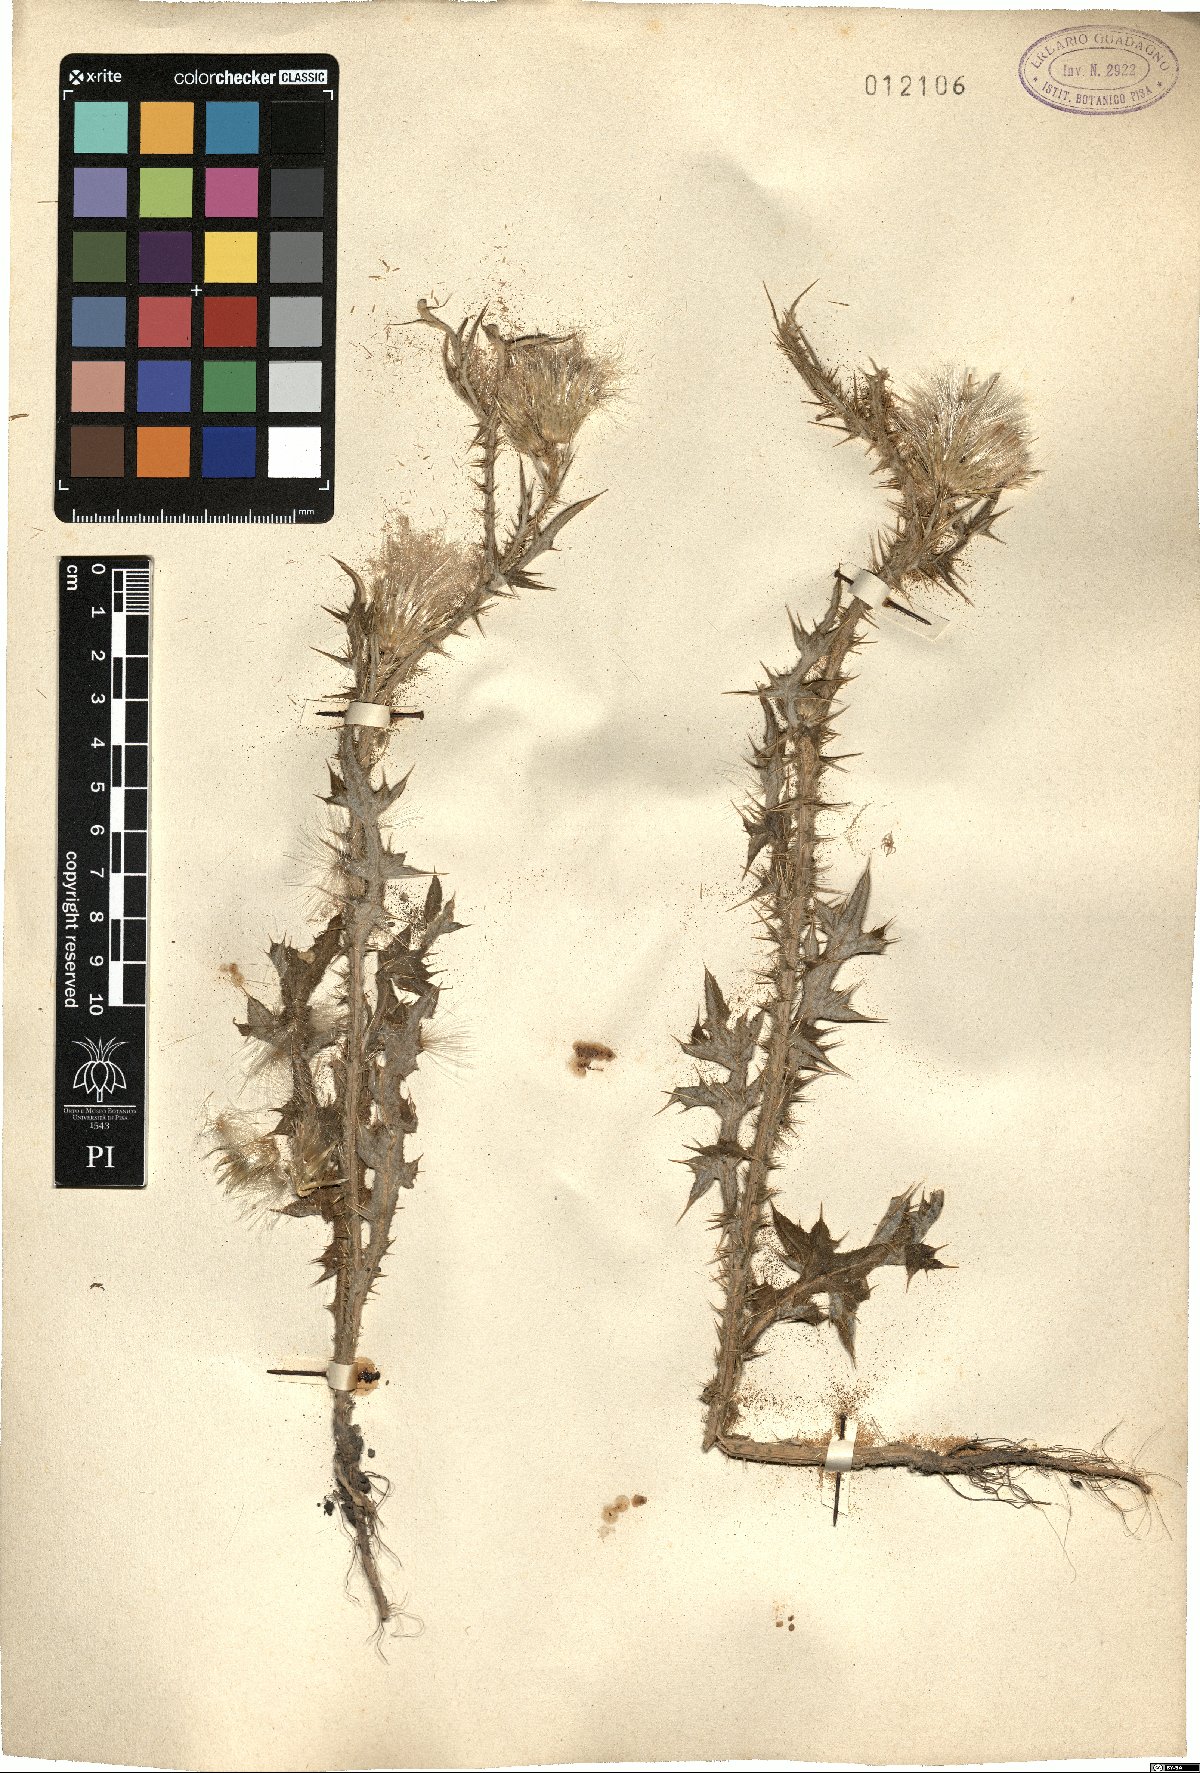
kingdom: Plantae
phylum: Tracheophyta
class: Magnoliopsida
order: Asterales
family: Asteraceae
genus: Carduus
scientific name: Carduus
